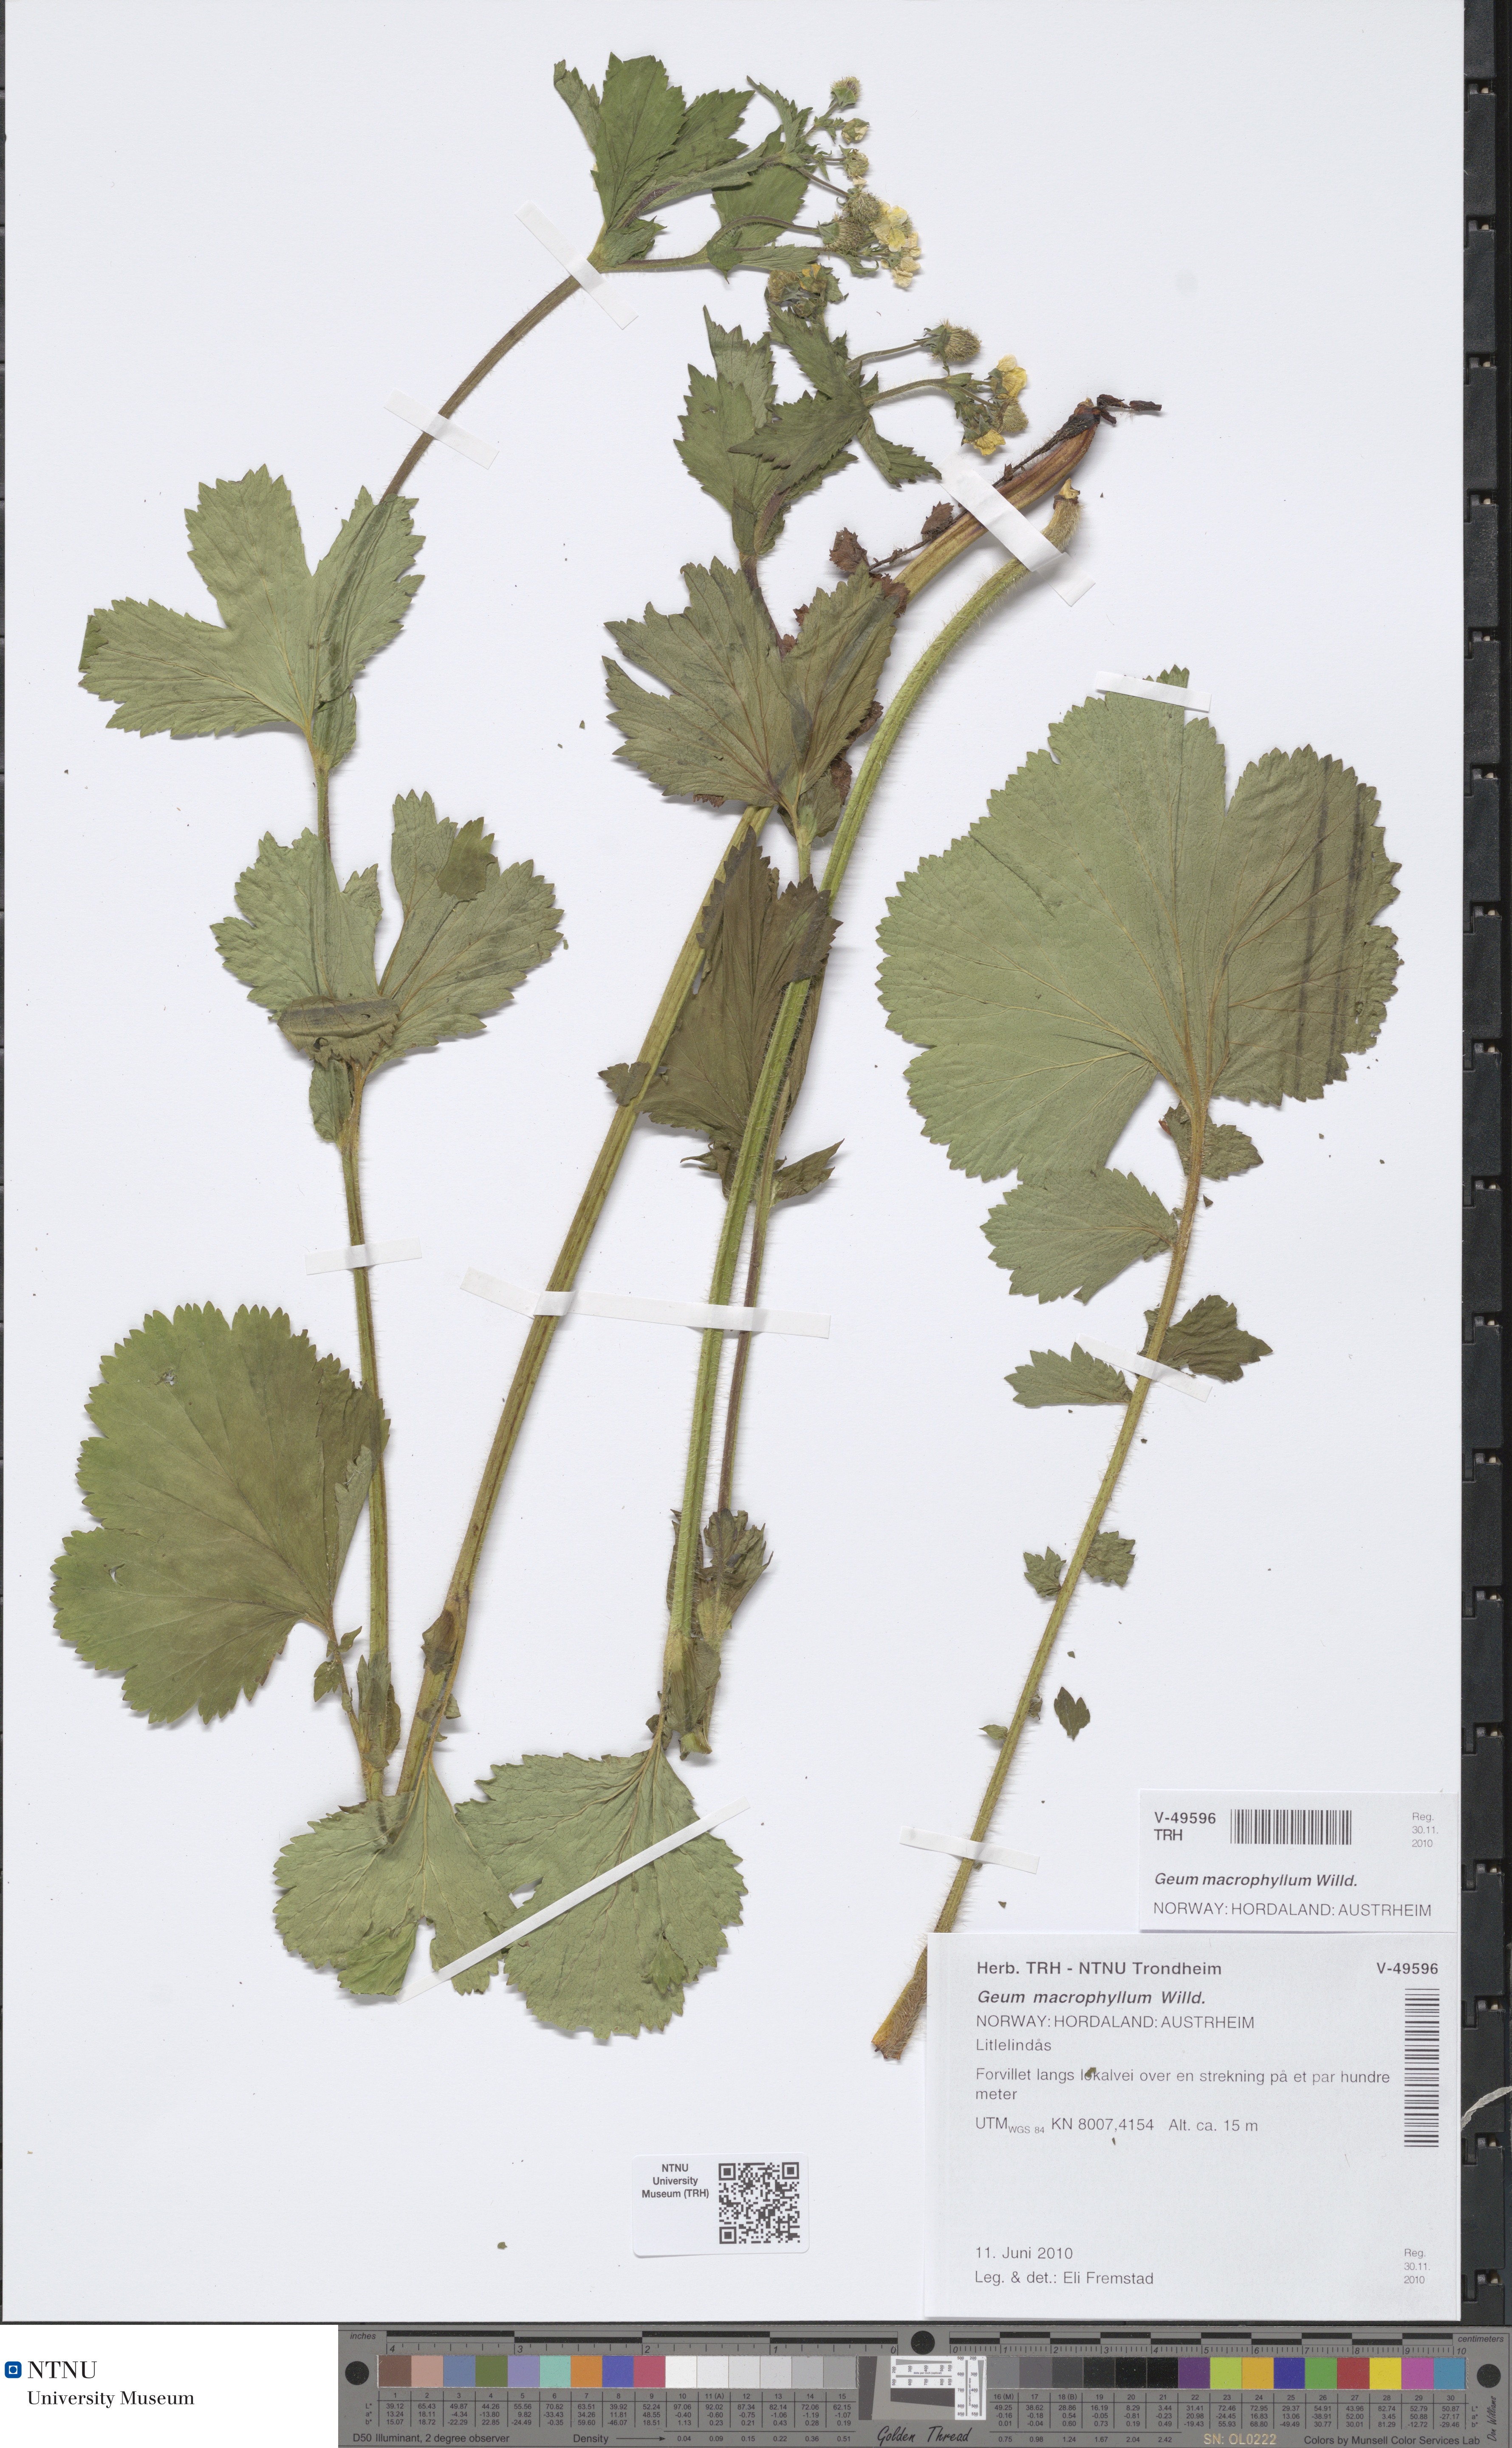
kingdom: Plantae
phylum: Tracheophyta
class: Magnoliopsida
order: Rosales
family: Rosaceae
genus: Geum
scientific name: Geum macrophyllum
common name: Large-leaved avens
